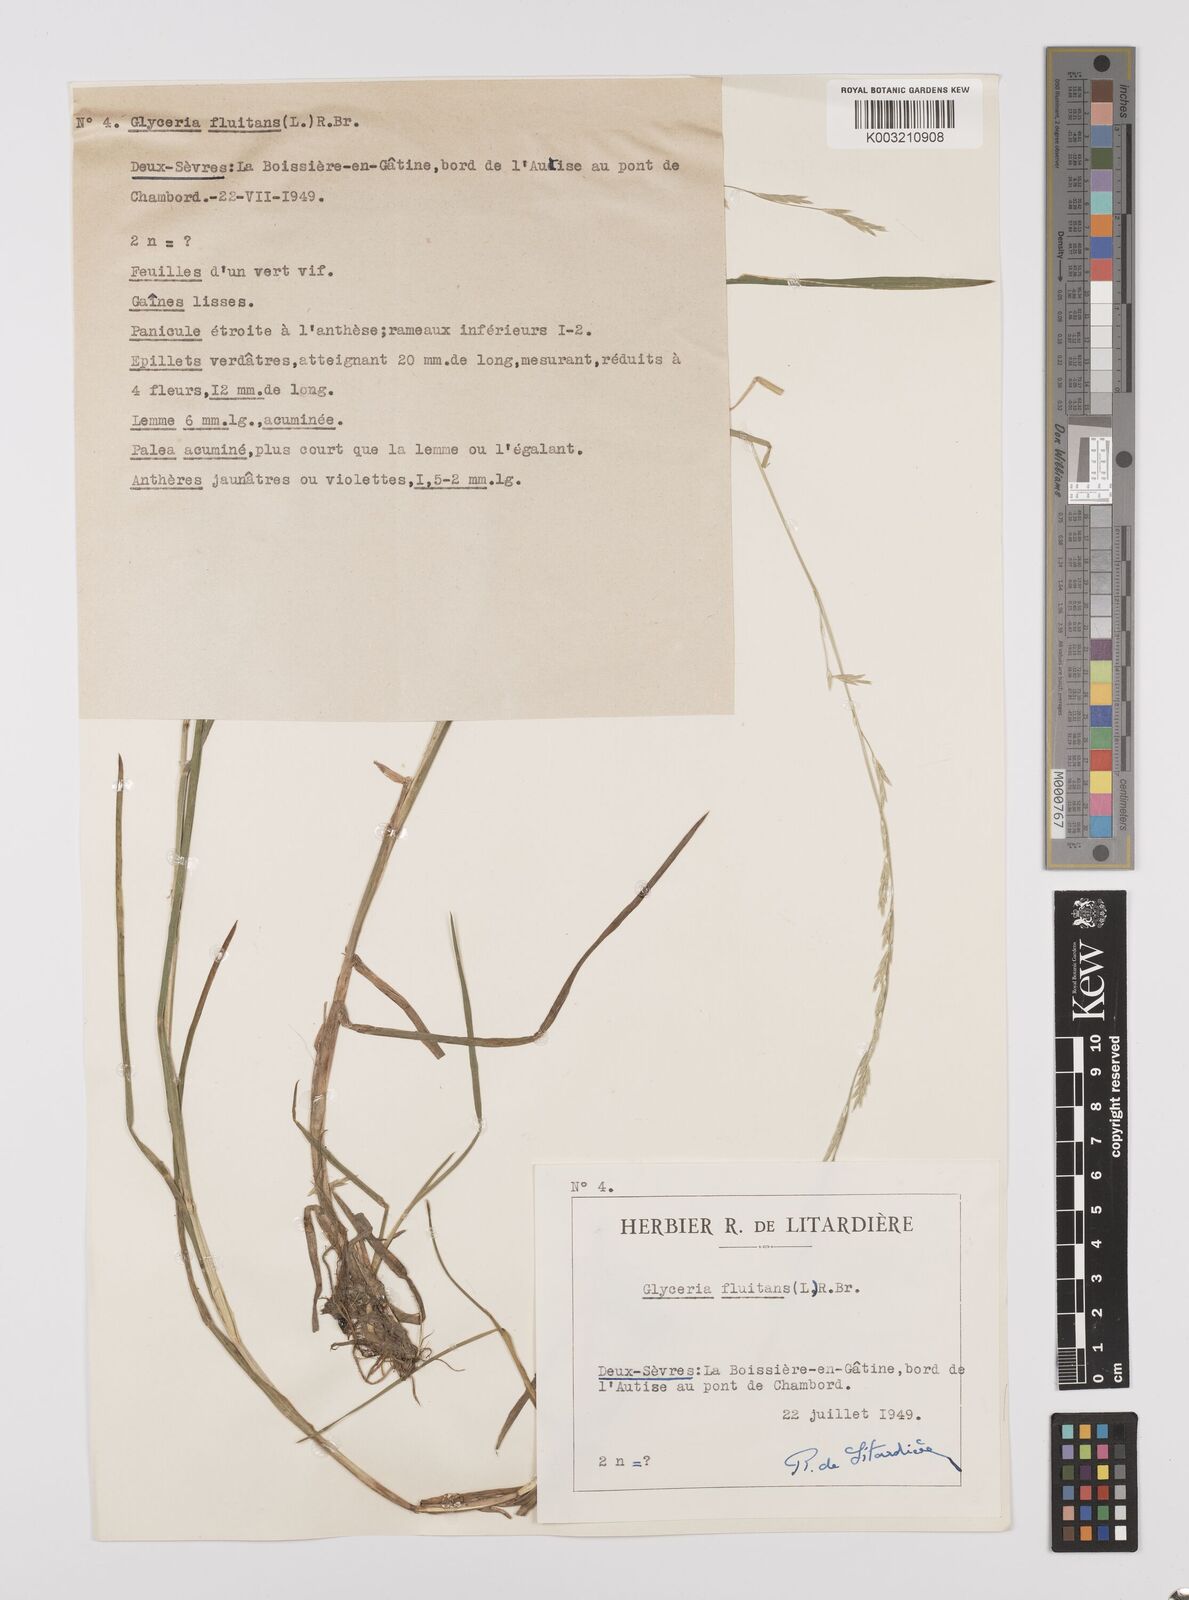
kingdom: Plantae
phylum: Tracheophyta
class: Liliopsida
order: Poales
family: Poaceae
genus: Glyceria
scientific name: Glyceria fluitans
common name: Floating sweet-grass
